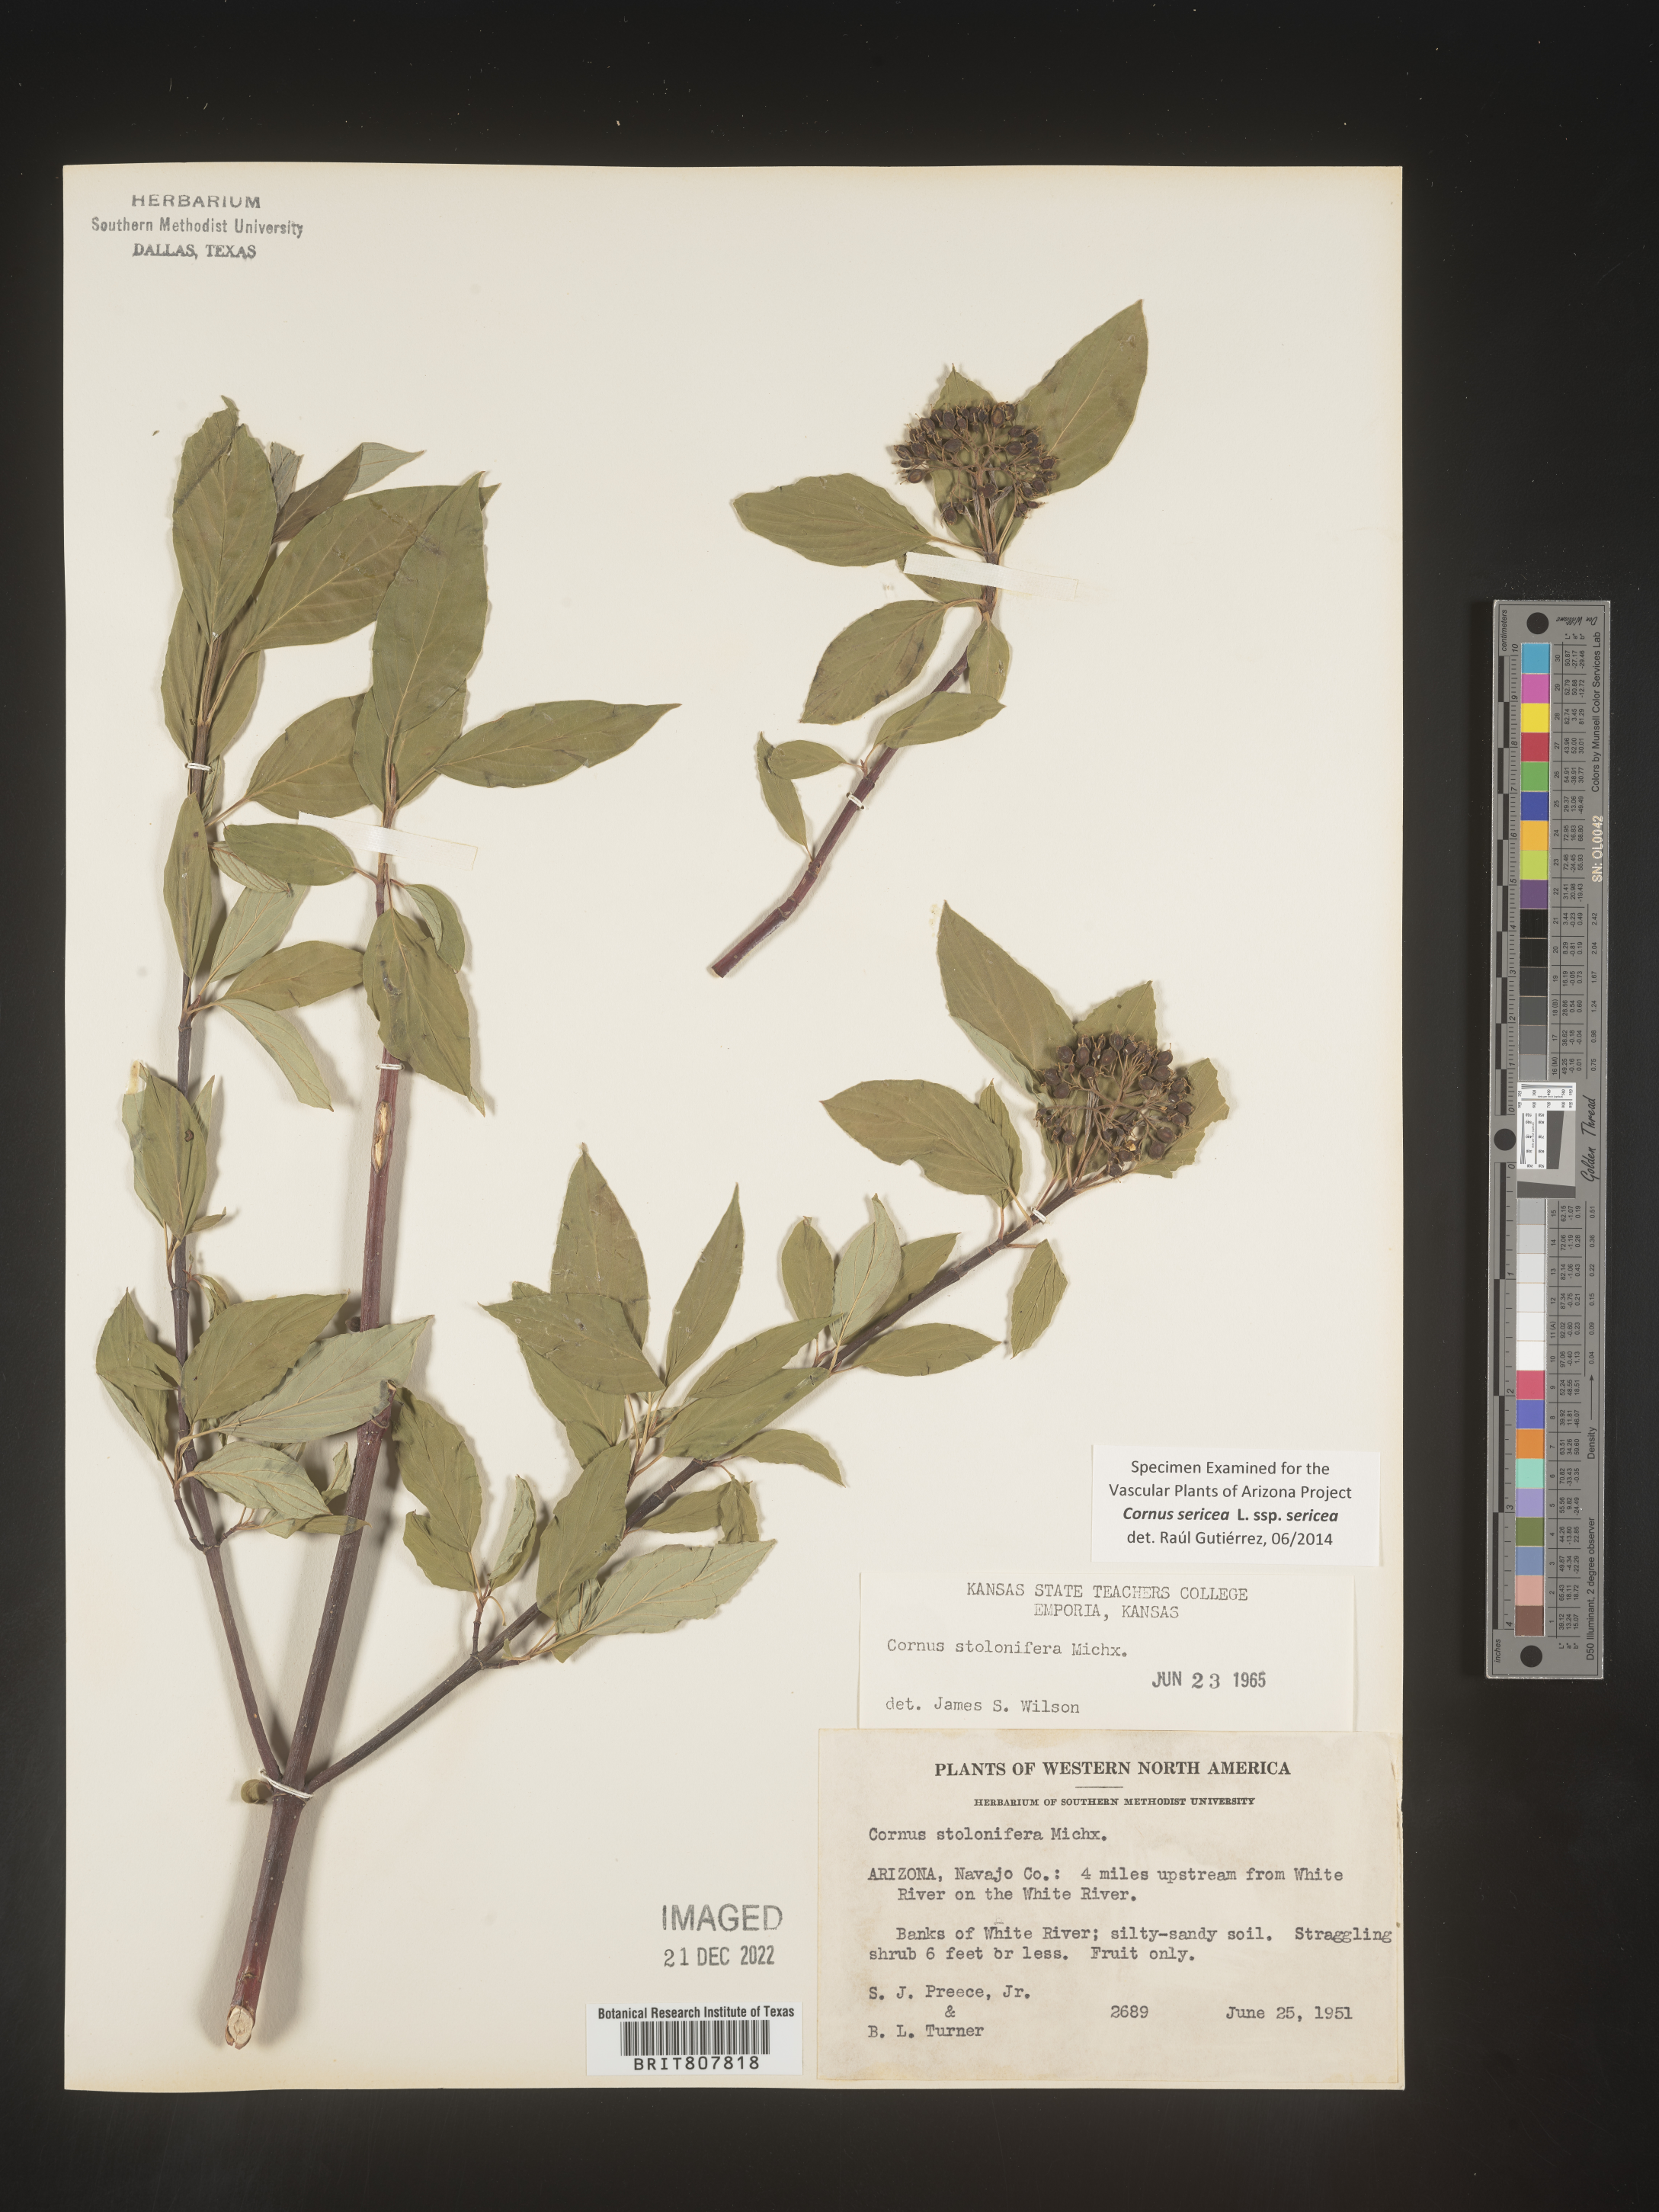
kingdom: Plantae
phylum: Tracheophyta
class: Magnoliopsida
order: Cornales
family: Cornaceae
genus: Cornus
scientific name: Cornus
